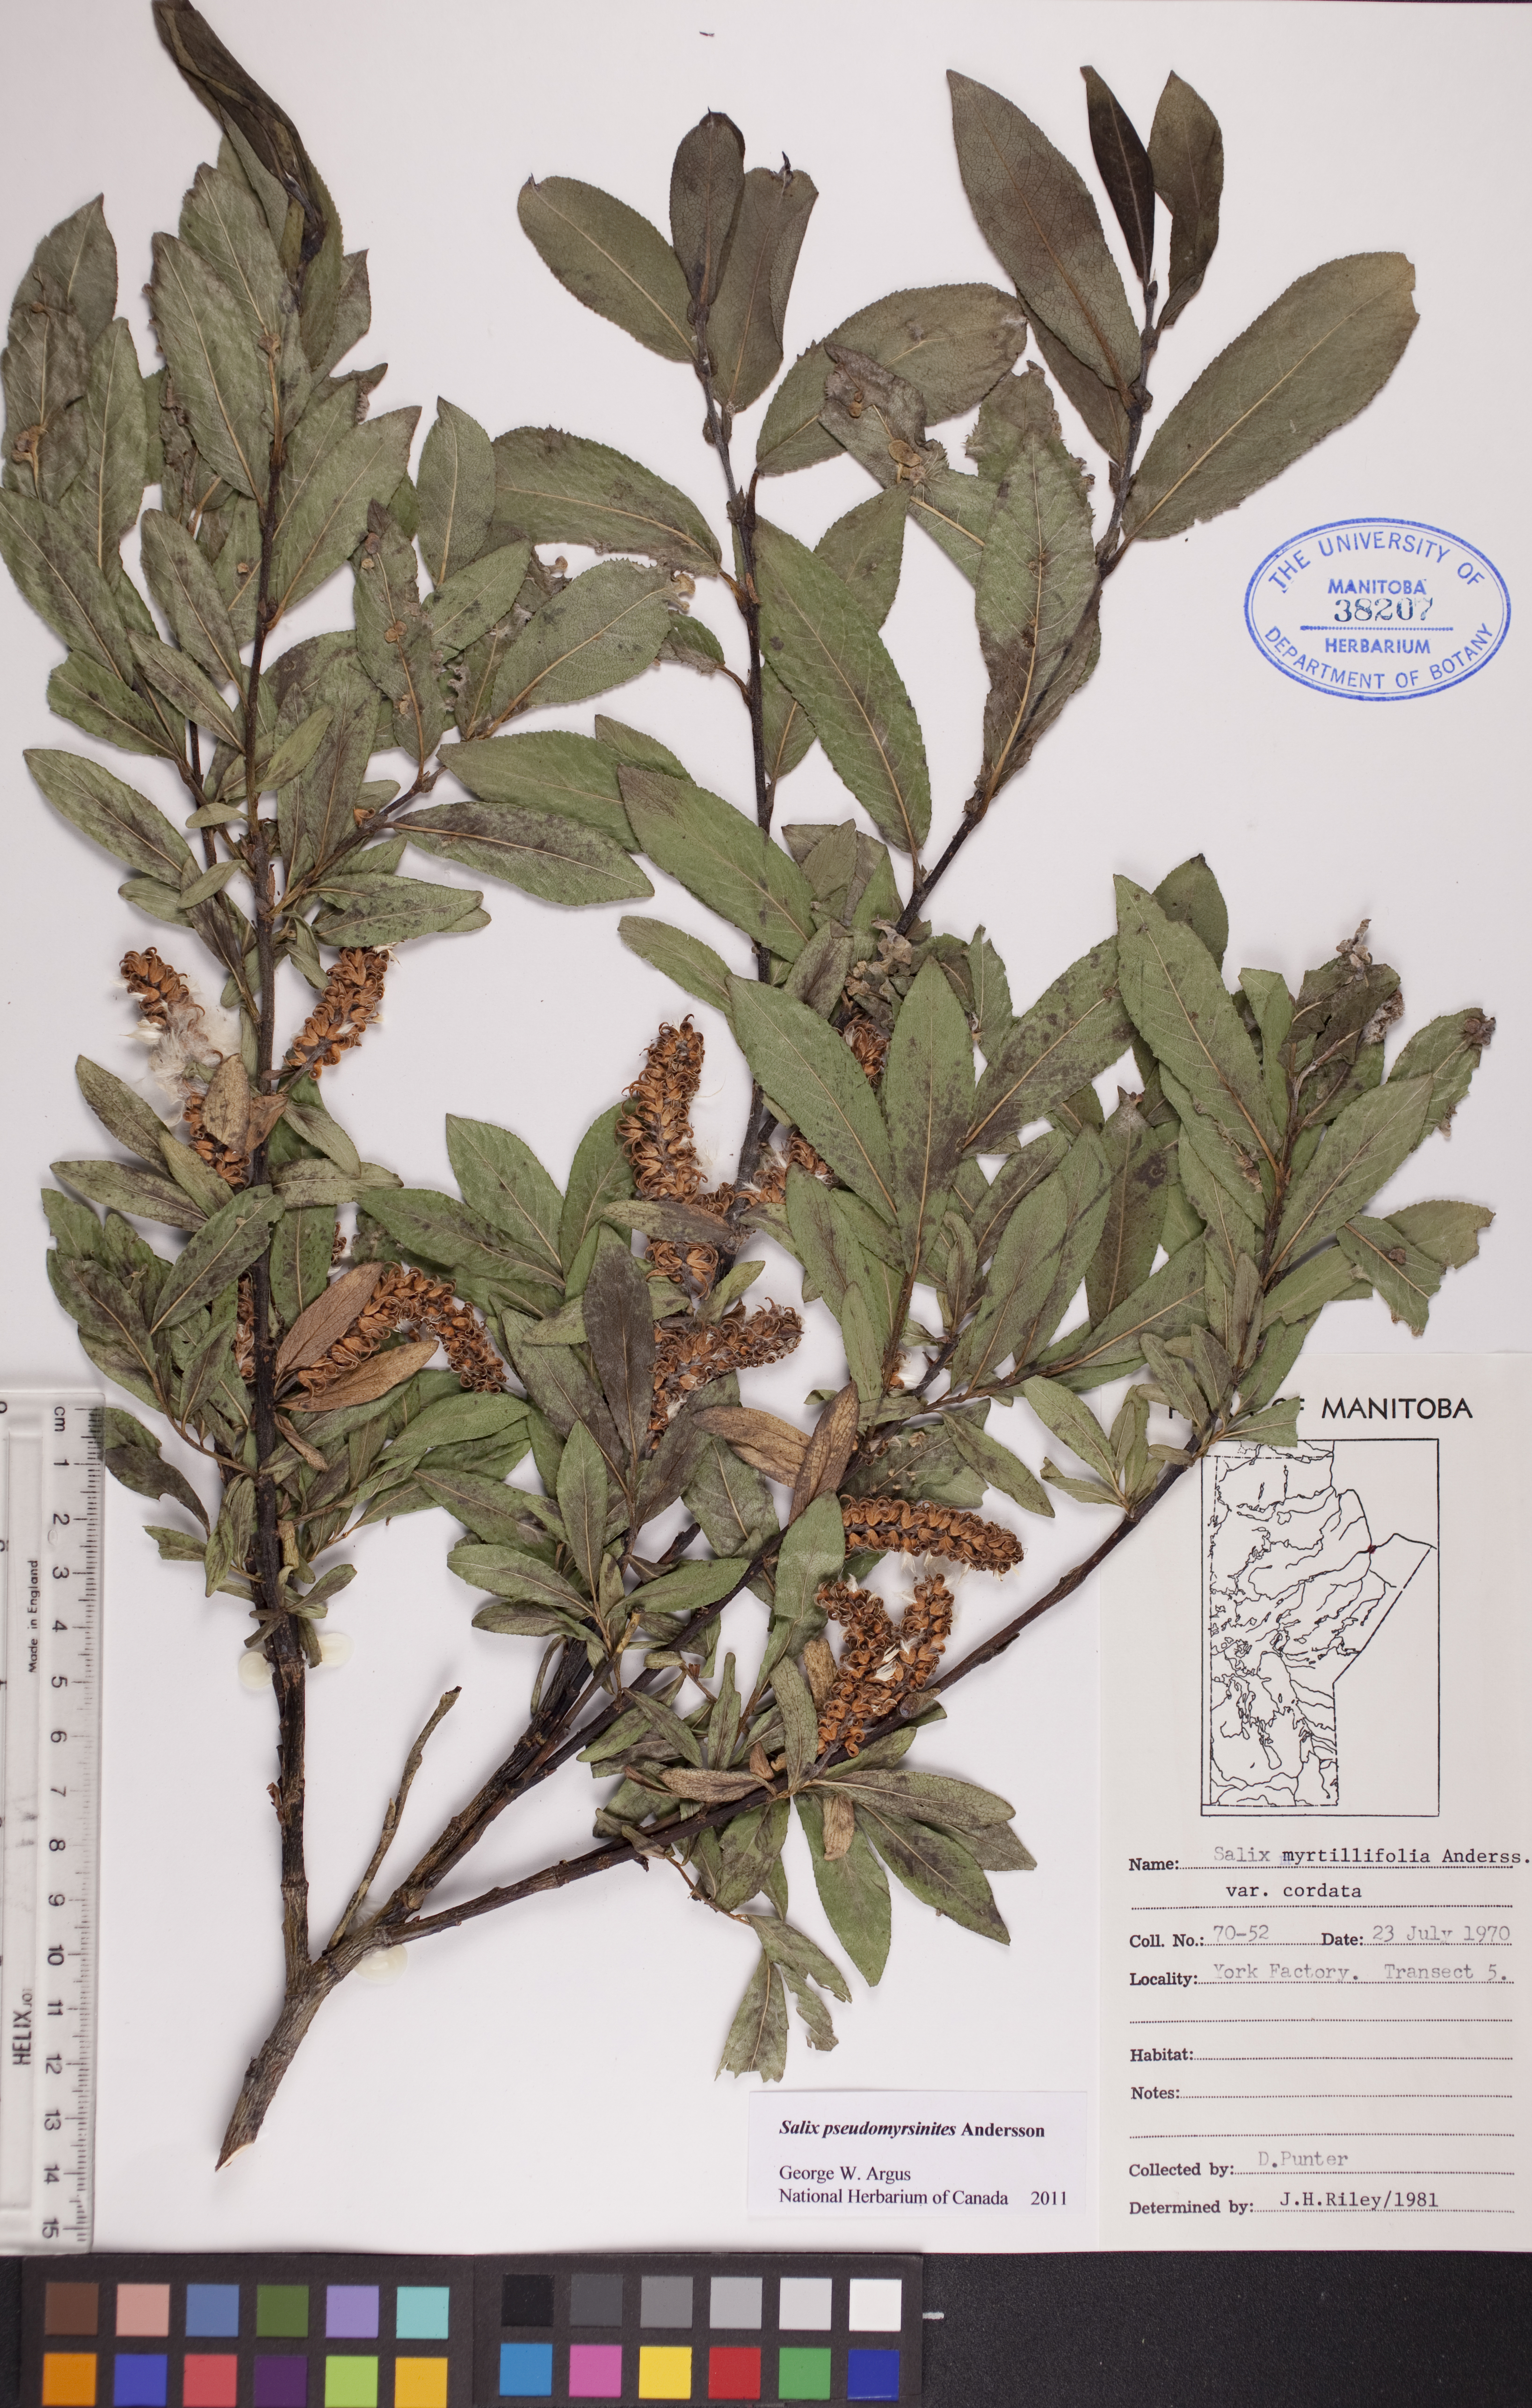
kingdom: Plantae
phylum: Tracheophyta
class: Magnoliopsida
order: Malpighiales
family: Salicaceae
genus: Salix
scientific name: Salix pseudomyrsinites
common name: Tall blueberry willow
